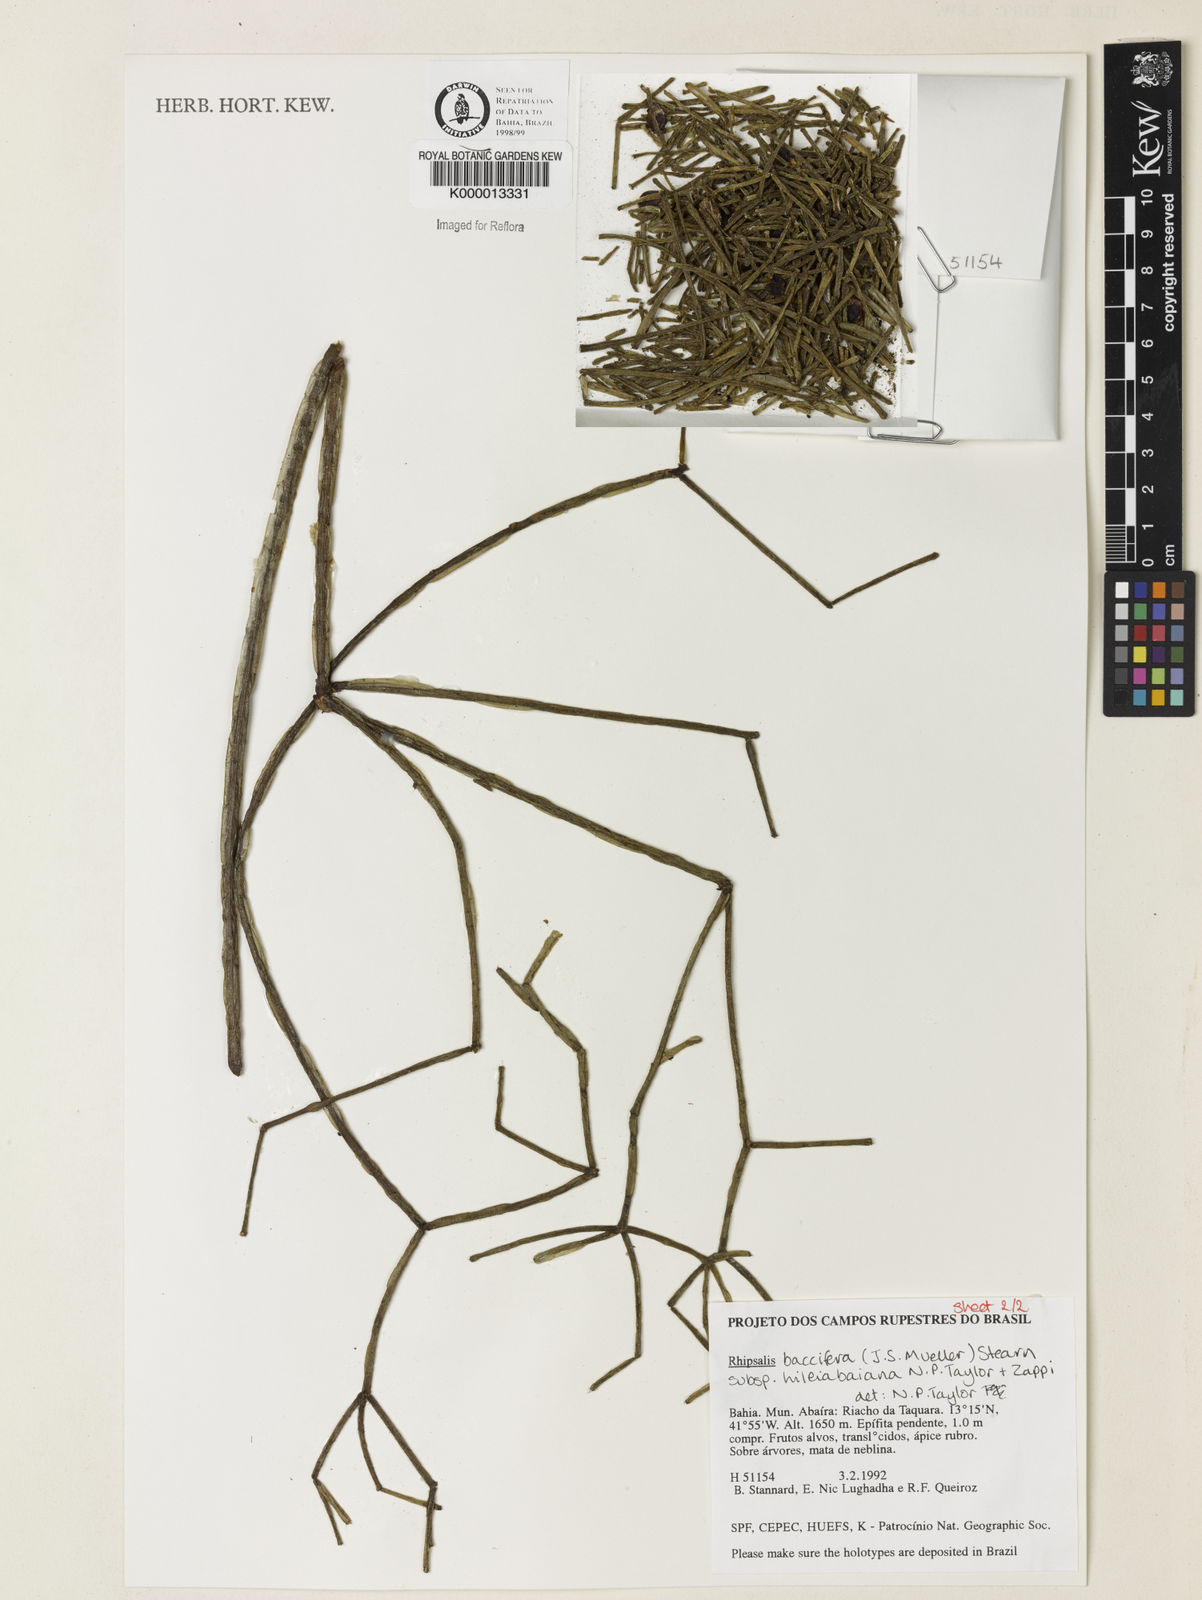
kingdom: Plantae
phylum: Tracheophyta
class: Magnoliopsida
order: Caryophyllales
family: Cactaceae
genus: Rhipsalis
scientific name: Rhipsalis hileiabaiana
